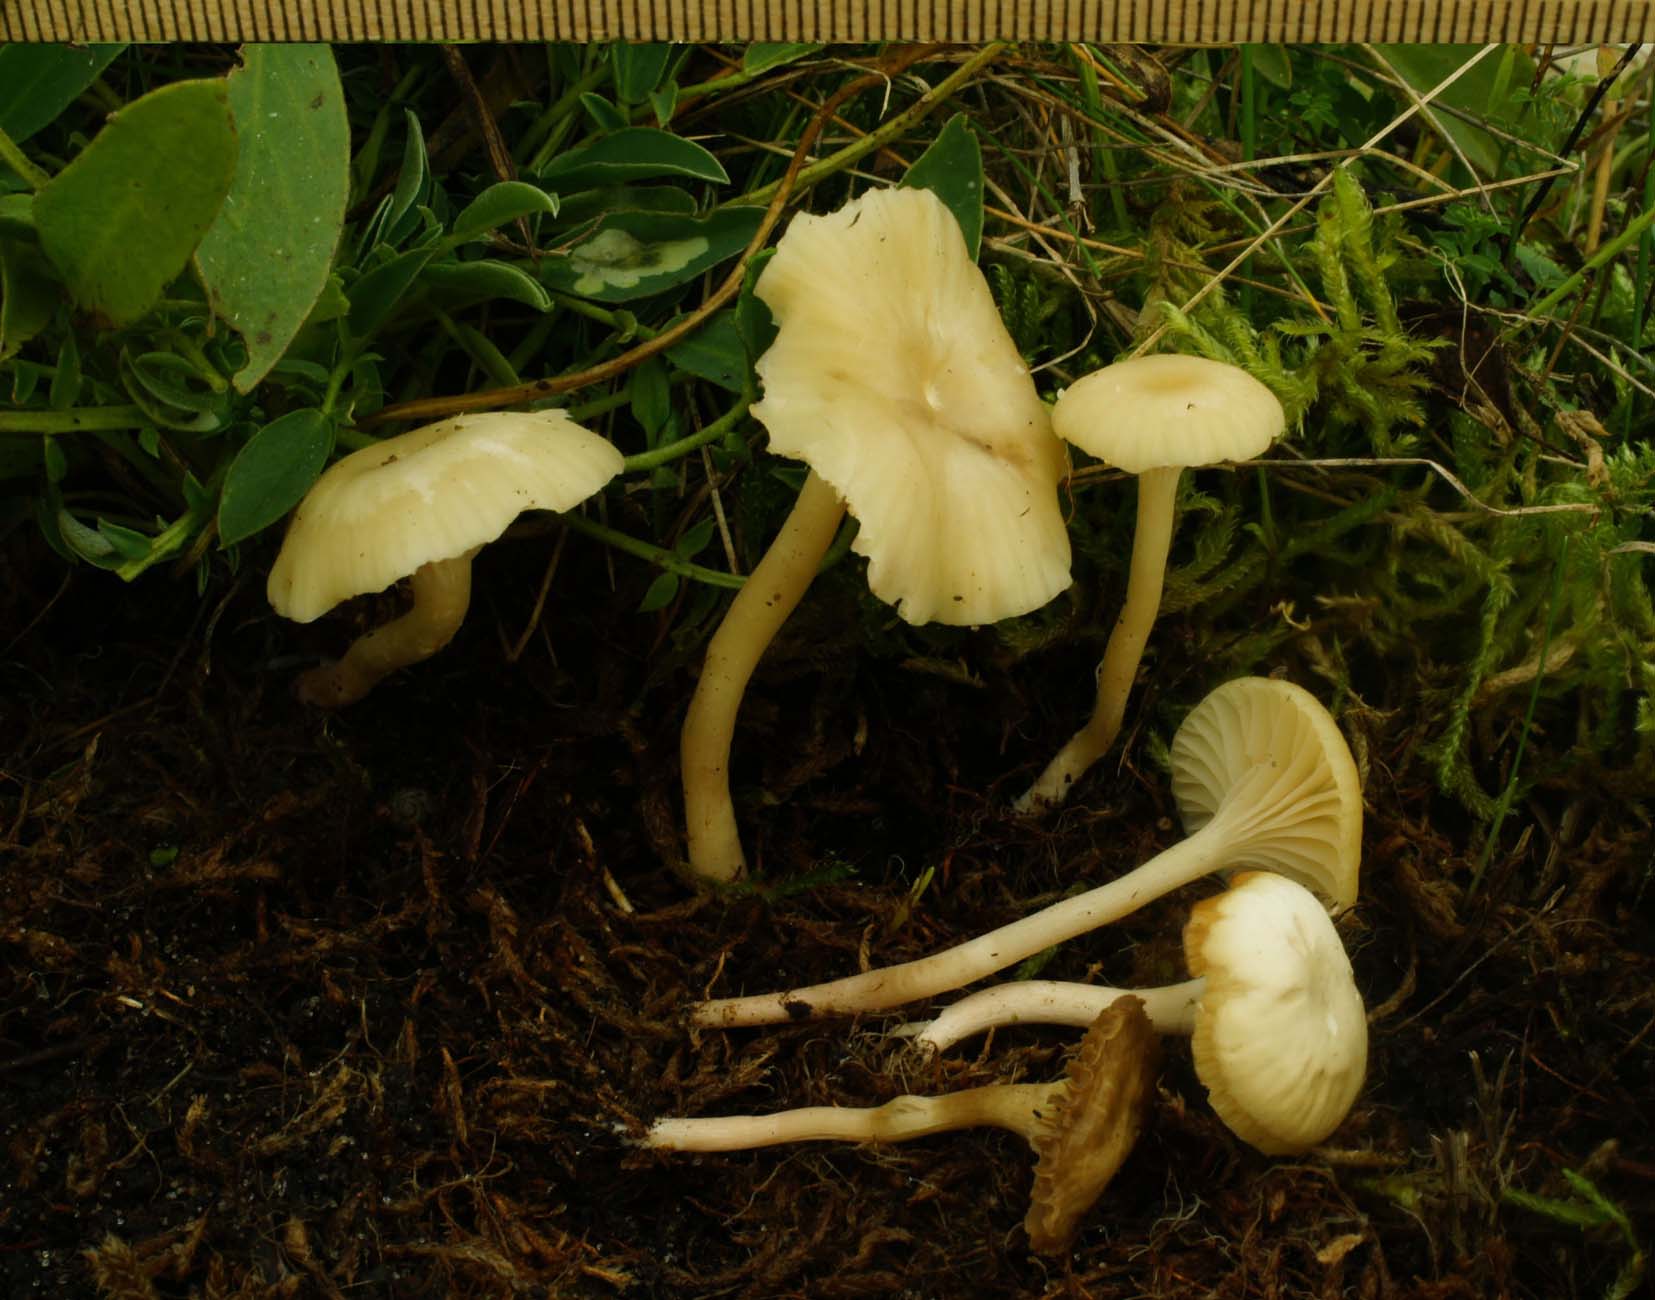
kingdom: Fungi
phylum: Basidiomycota
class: Agaricomycetes
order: Agaricales
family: Hygrophoraceae
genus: Cuphophyllus
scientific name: Cuphophyllus russocoriaceus
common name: ruslæder-vokshat
